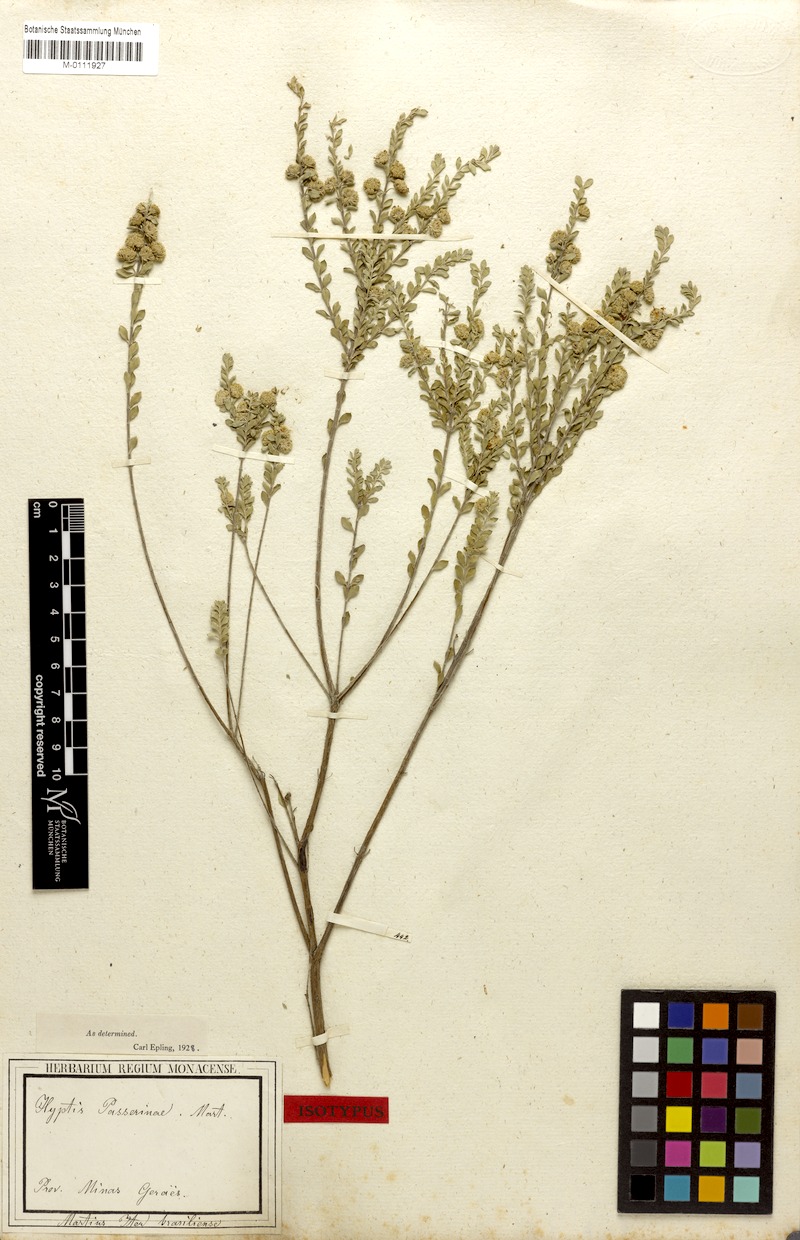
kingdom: Plantae
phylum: Tracheophyta
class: Magnoliopsida
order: Lamiales
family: Lamiaceae
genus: Hyptis
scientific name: Hyptis passerina
